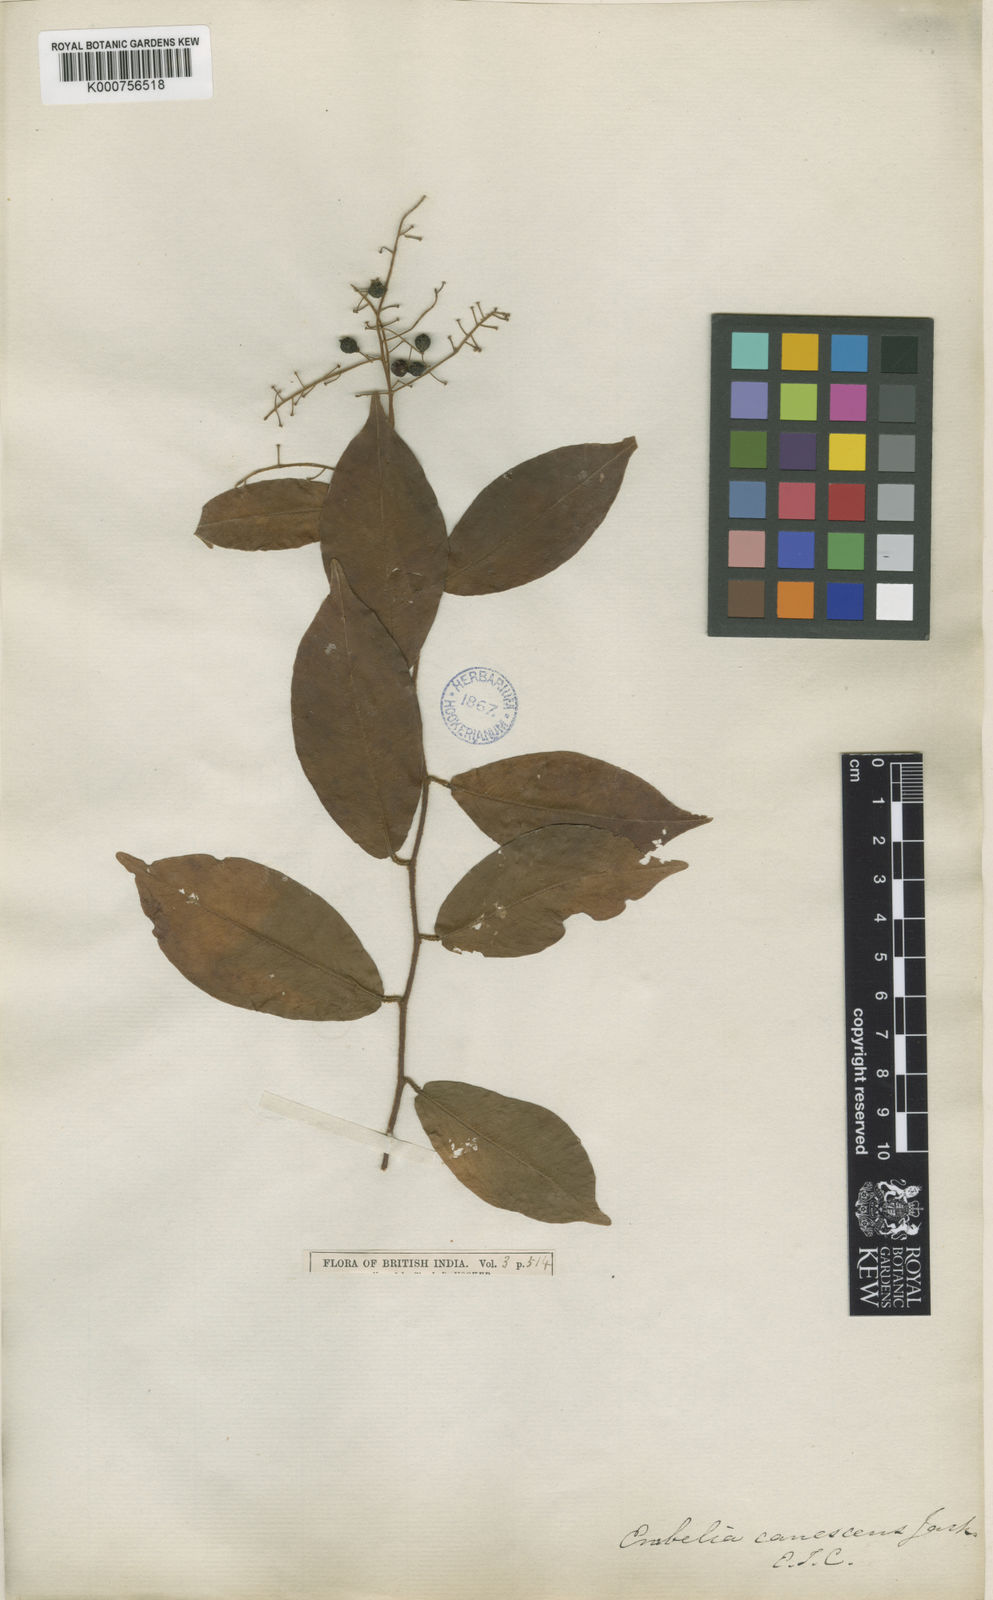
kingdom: Plantae
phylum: Tracheophyta
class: Magnoliopsida
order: Ericales
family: Primulaceae
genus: Embelia
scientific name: Embelia coriacea
